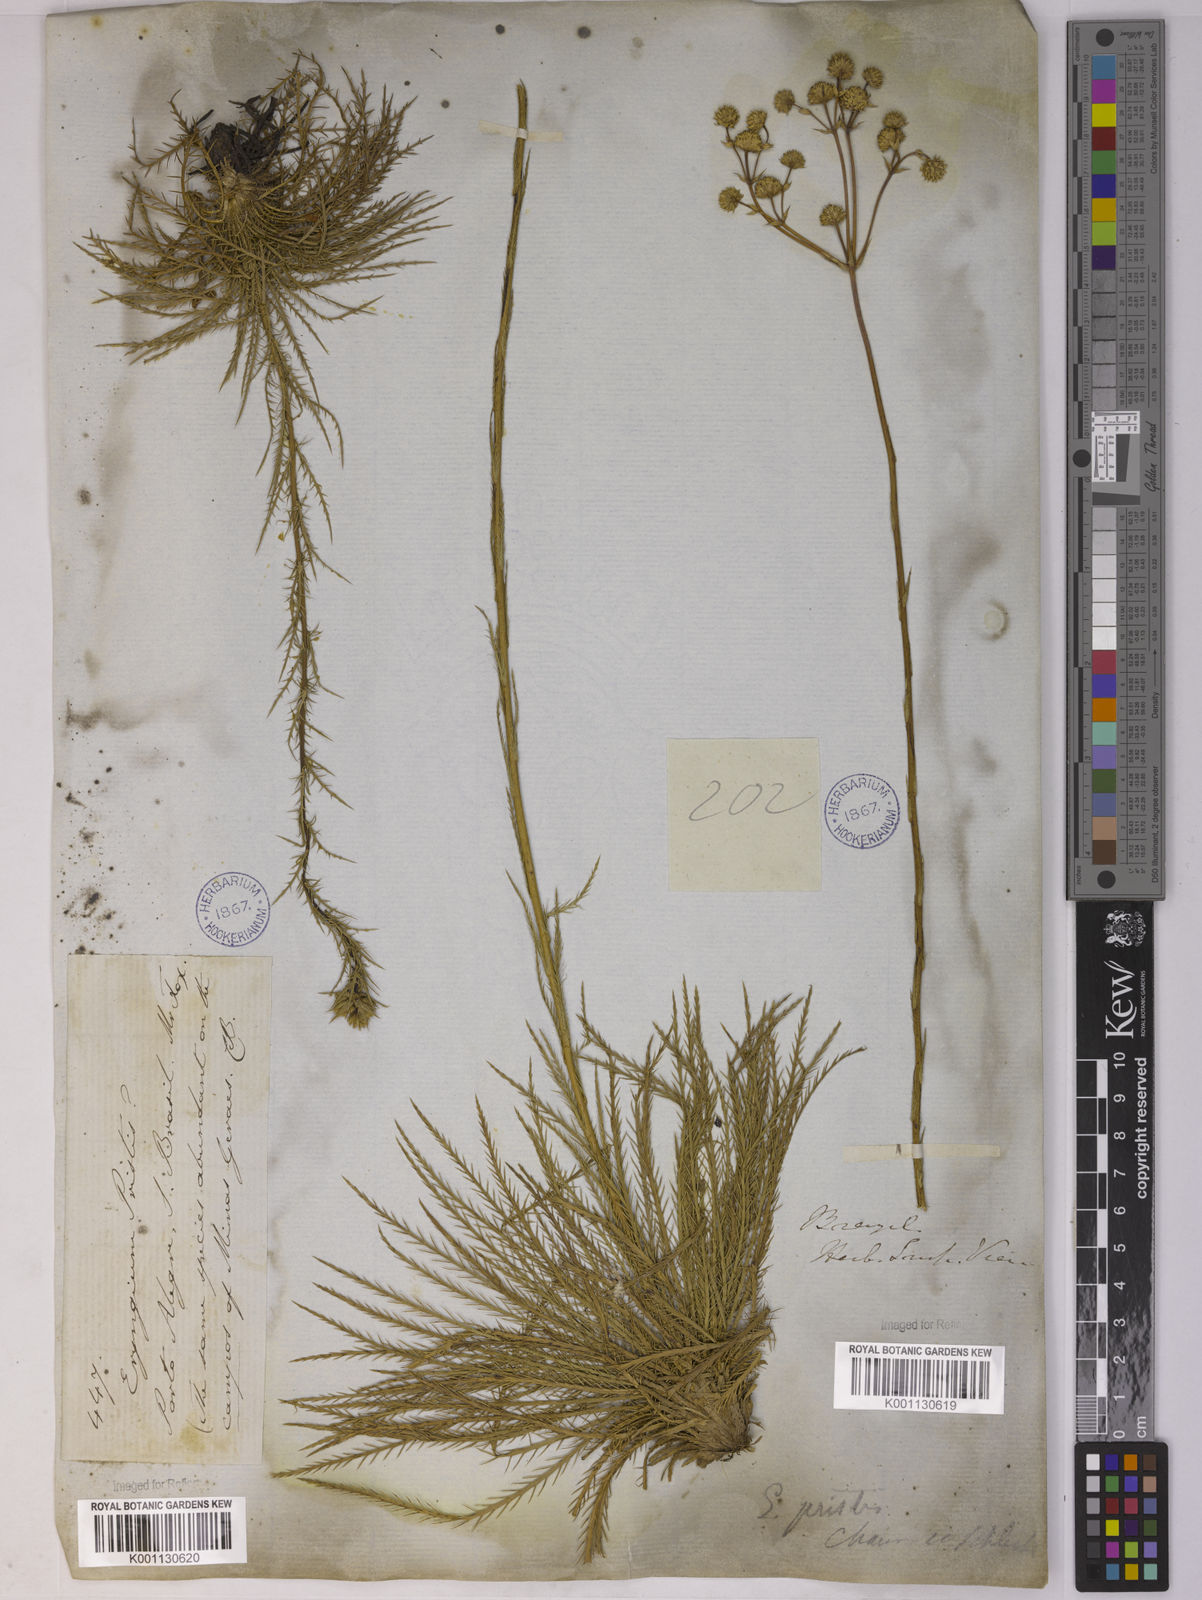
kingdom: Plantae
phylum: Tracheophyta
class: Magnoliopsida
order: Apiales
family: Apiaceae
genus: Eryngium
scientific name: Eryngium pristis
